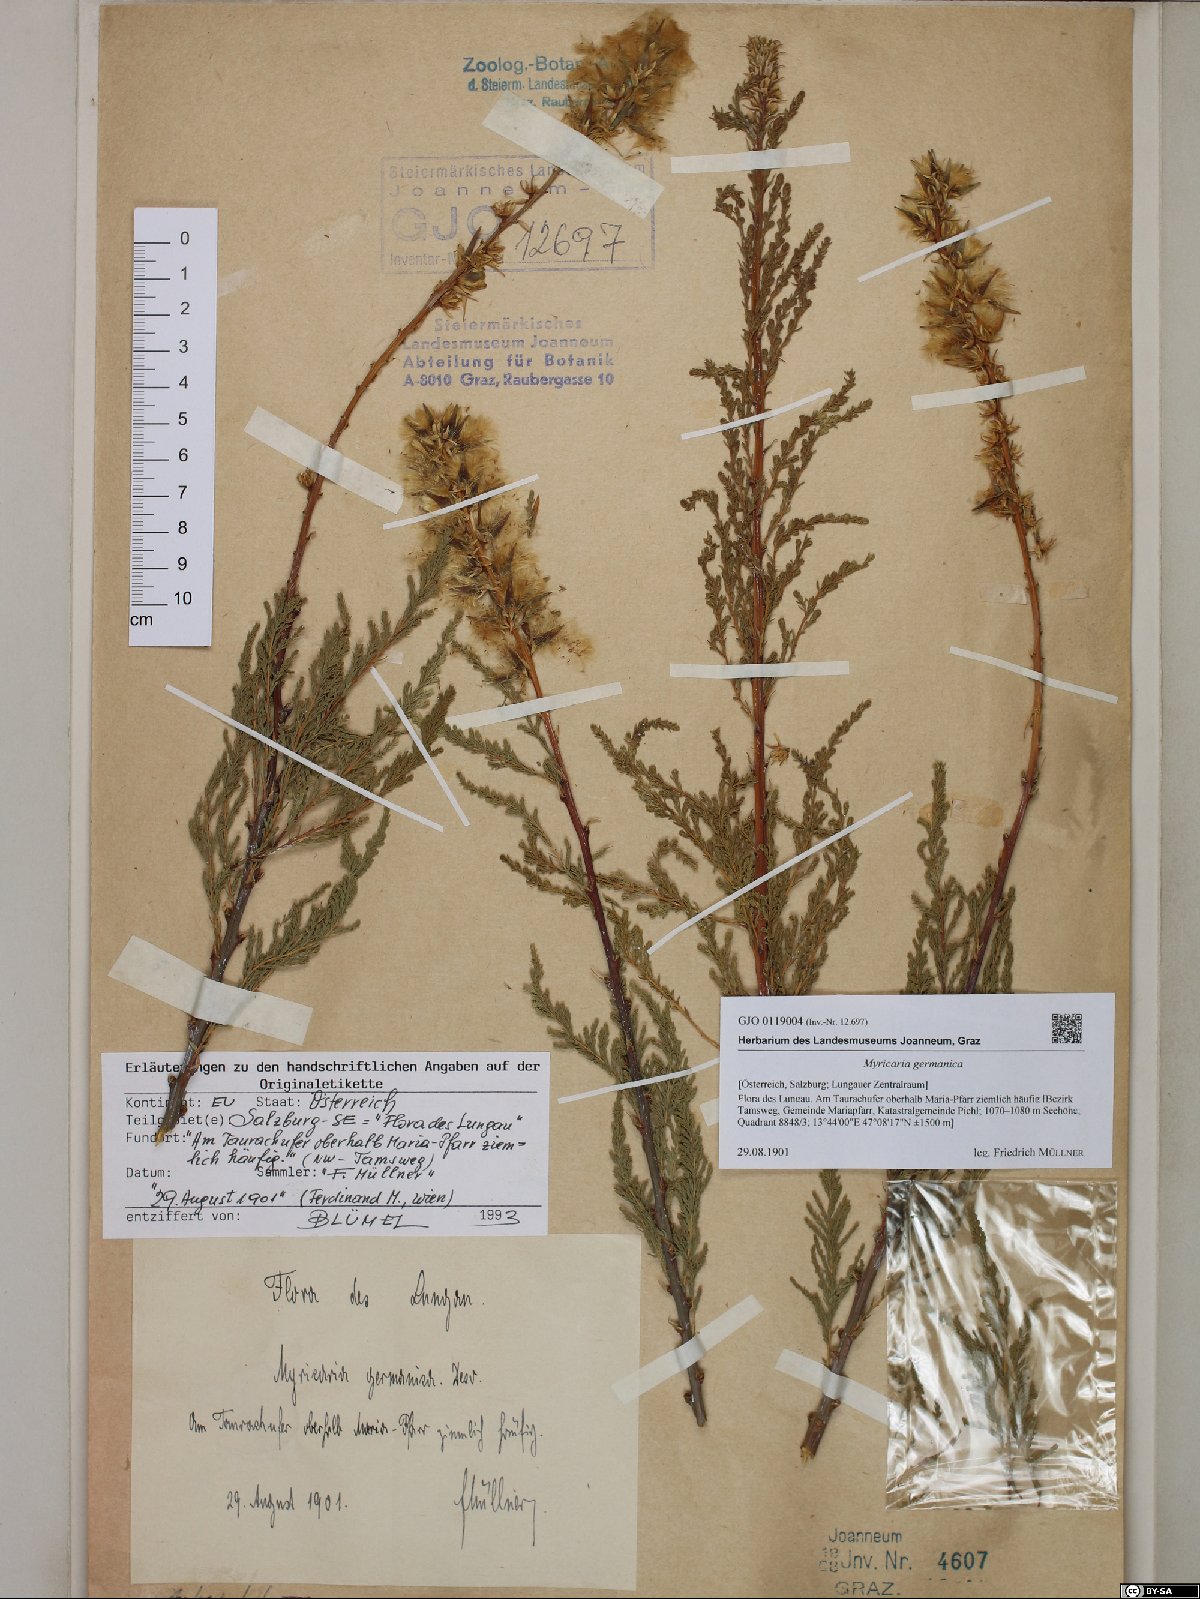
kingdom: Plantae
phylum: Tracheophyta
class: Magnoliopsida
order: Caryophyllales
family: Tamaricaceae
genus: Myricaria
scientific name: Myricaria germanica
